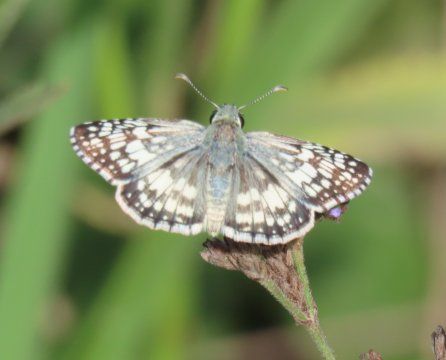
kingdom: Animalia
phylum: Arthropoda
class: Insecta
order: Lepidoptera
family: Hesperiidae
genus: Pyrgus
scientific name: Pyrgus communis
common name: White Checkered-Skipper
